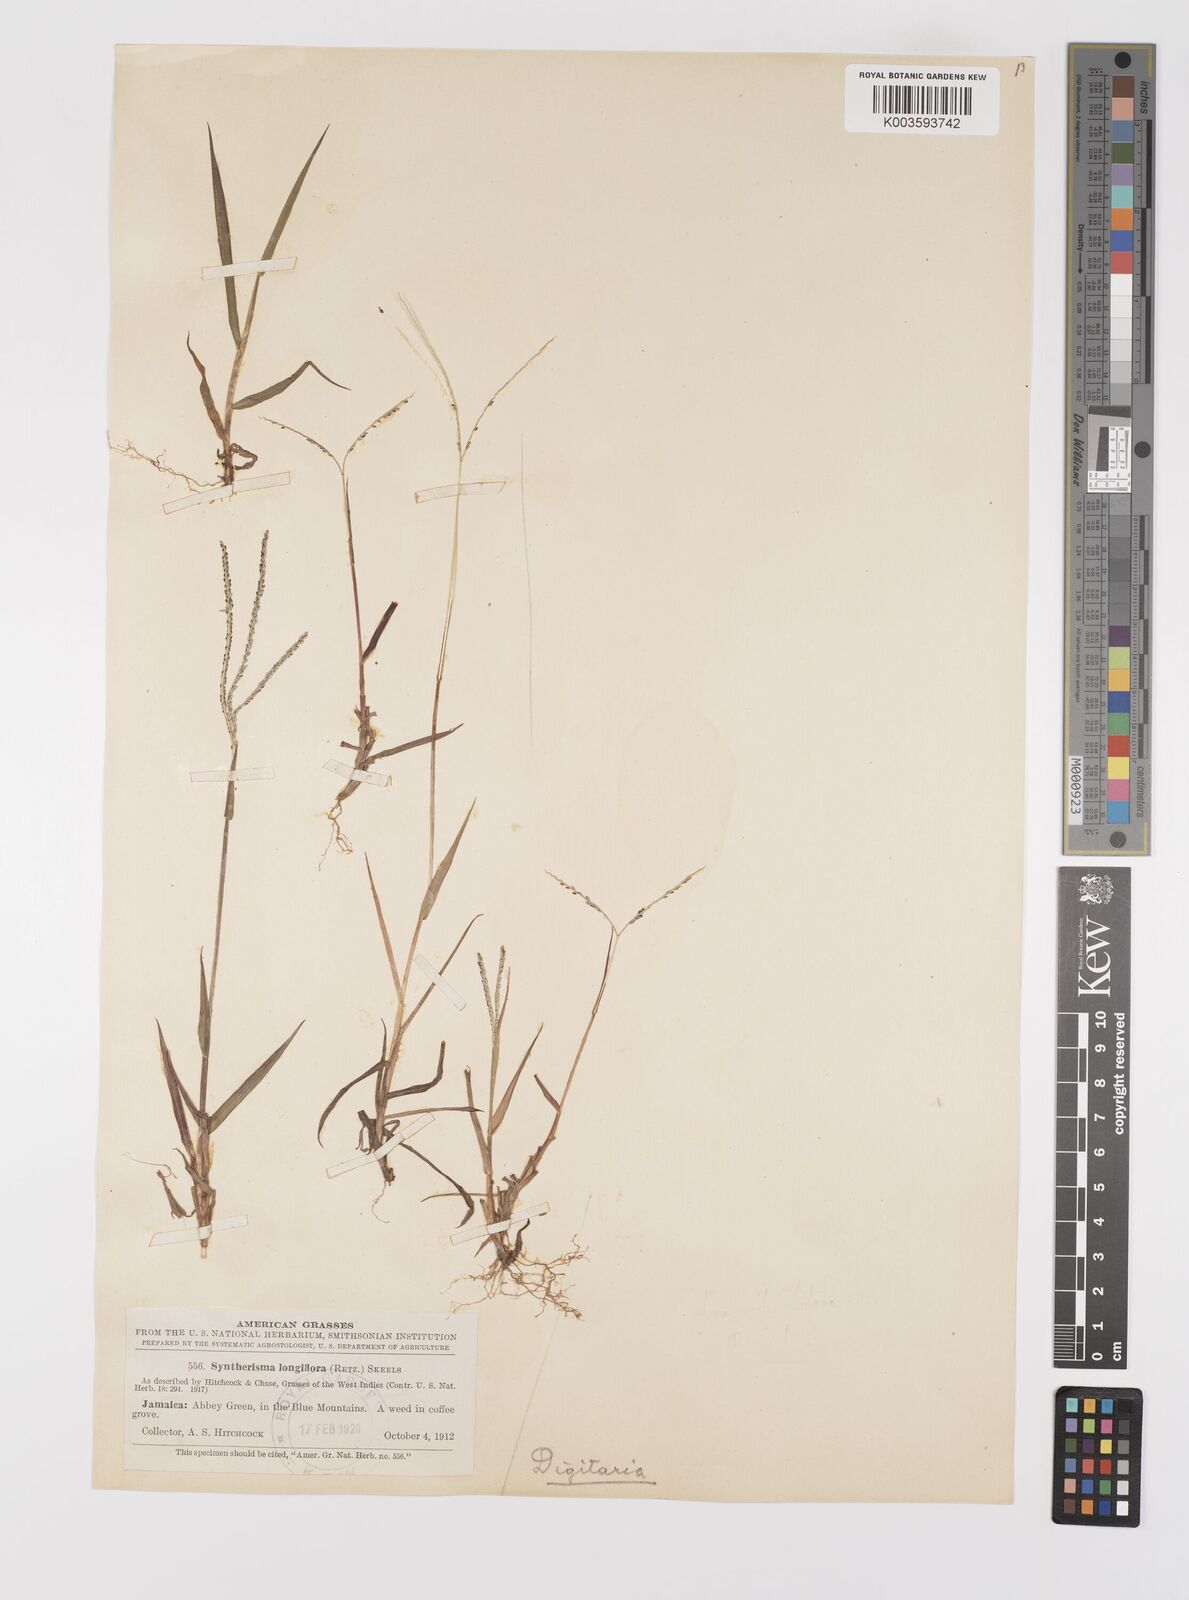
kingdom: Plantae
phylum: Tracheophyta
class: Liliopsida
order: Poales
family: Poaceae
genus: Digitaria
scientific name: Digitaria violascens
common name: Violet crabgrass
